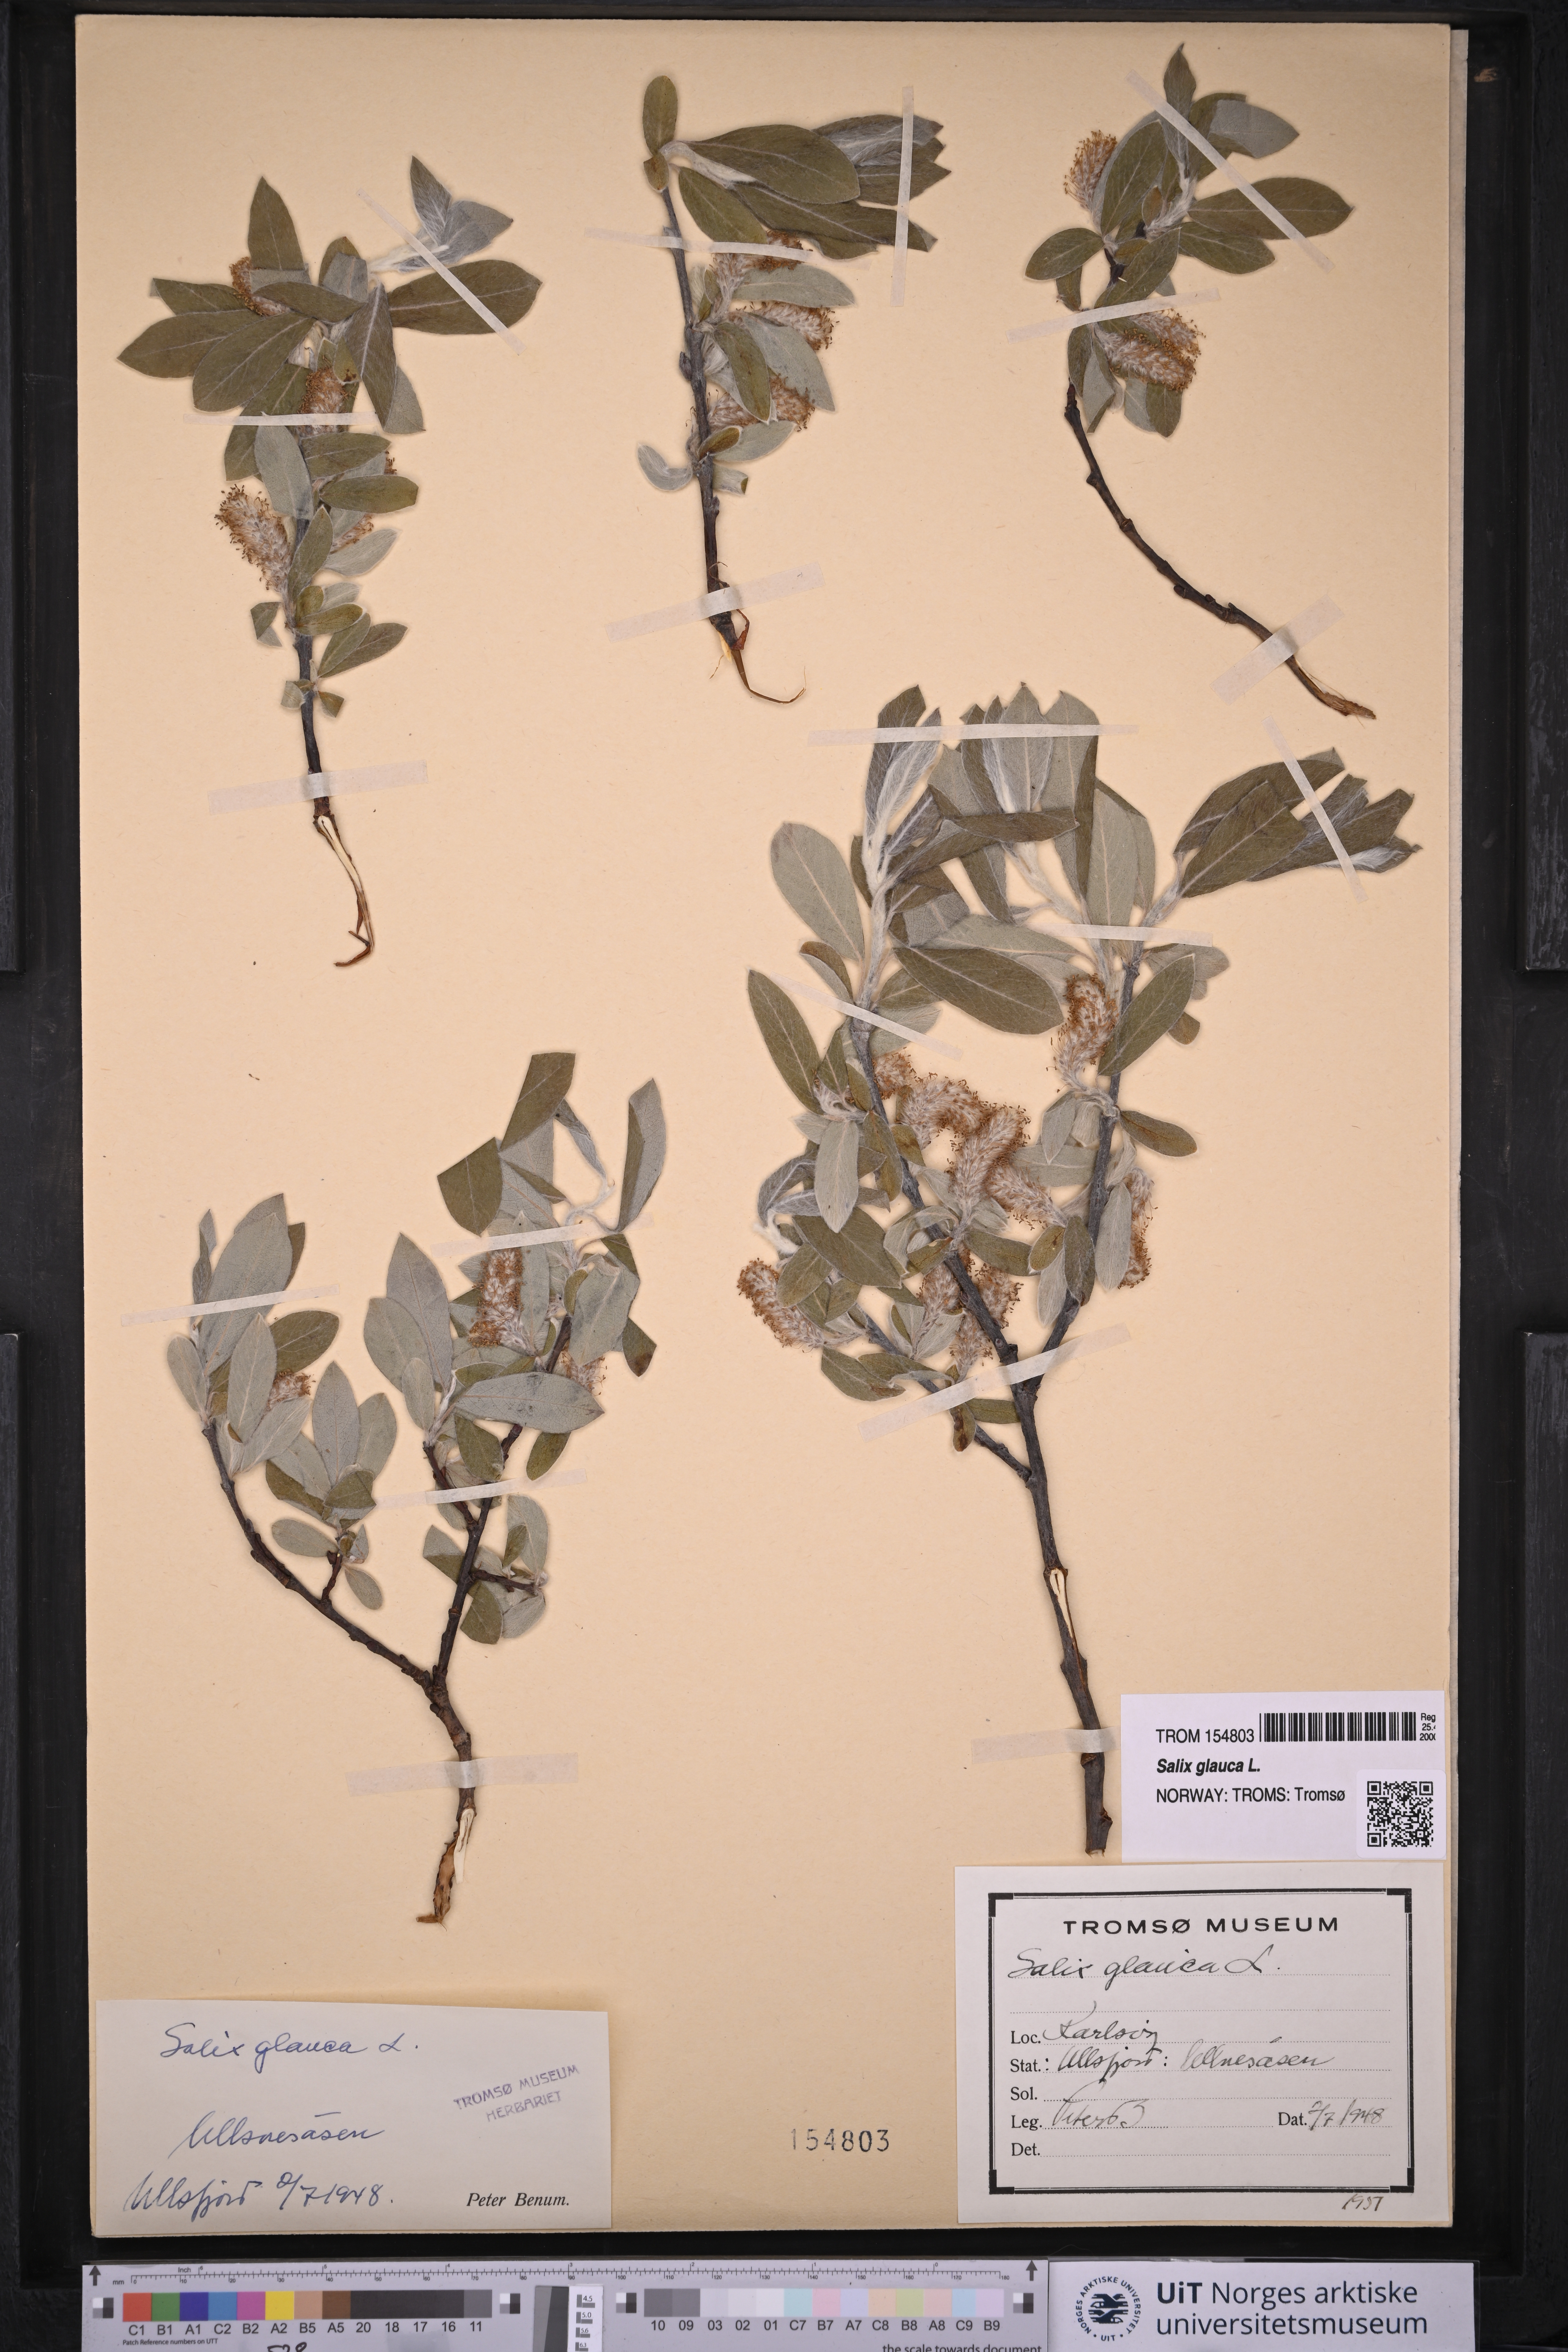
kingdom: Plantae
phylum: Tracheophyta
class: Magnoliopsida
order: Malpighiales
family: Salicaceae
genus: Salix
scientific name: Salix glauca
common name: Glaucous willow
